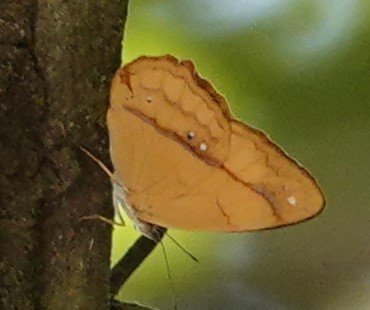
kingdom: Animalia
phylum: Arthropoda
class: Insecta
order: Lepidoptera
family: Nymphalidae
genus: Nica
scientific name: Nica flavilla
